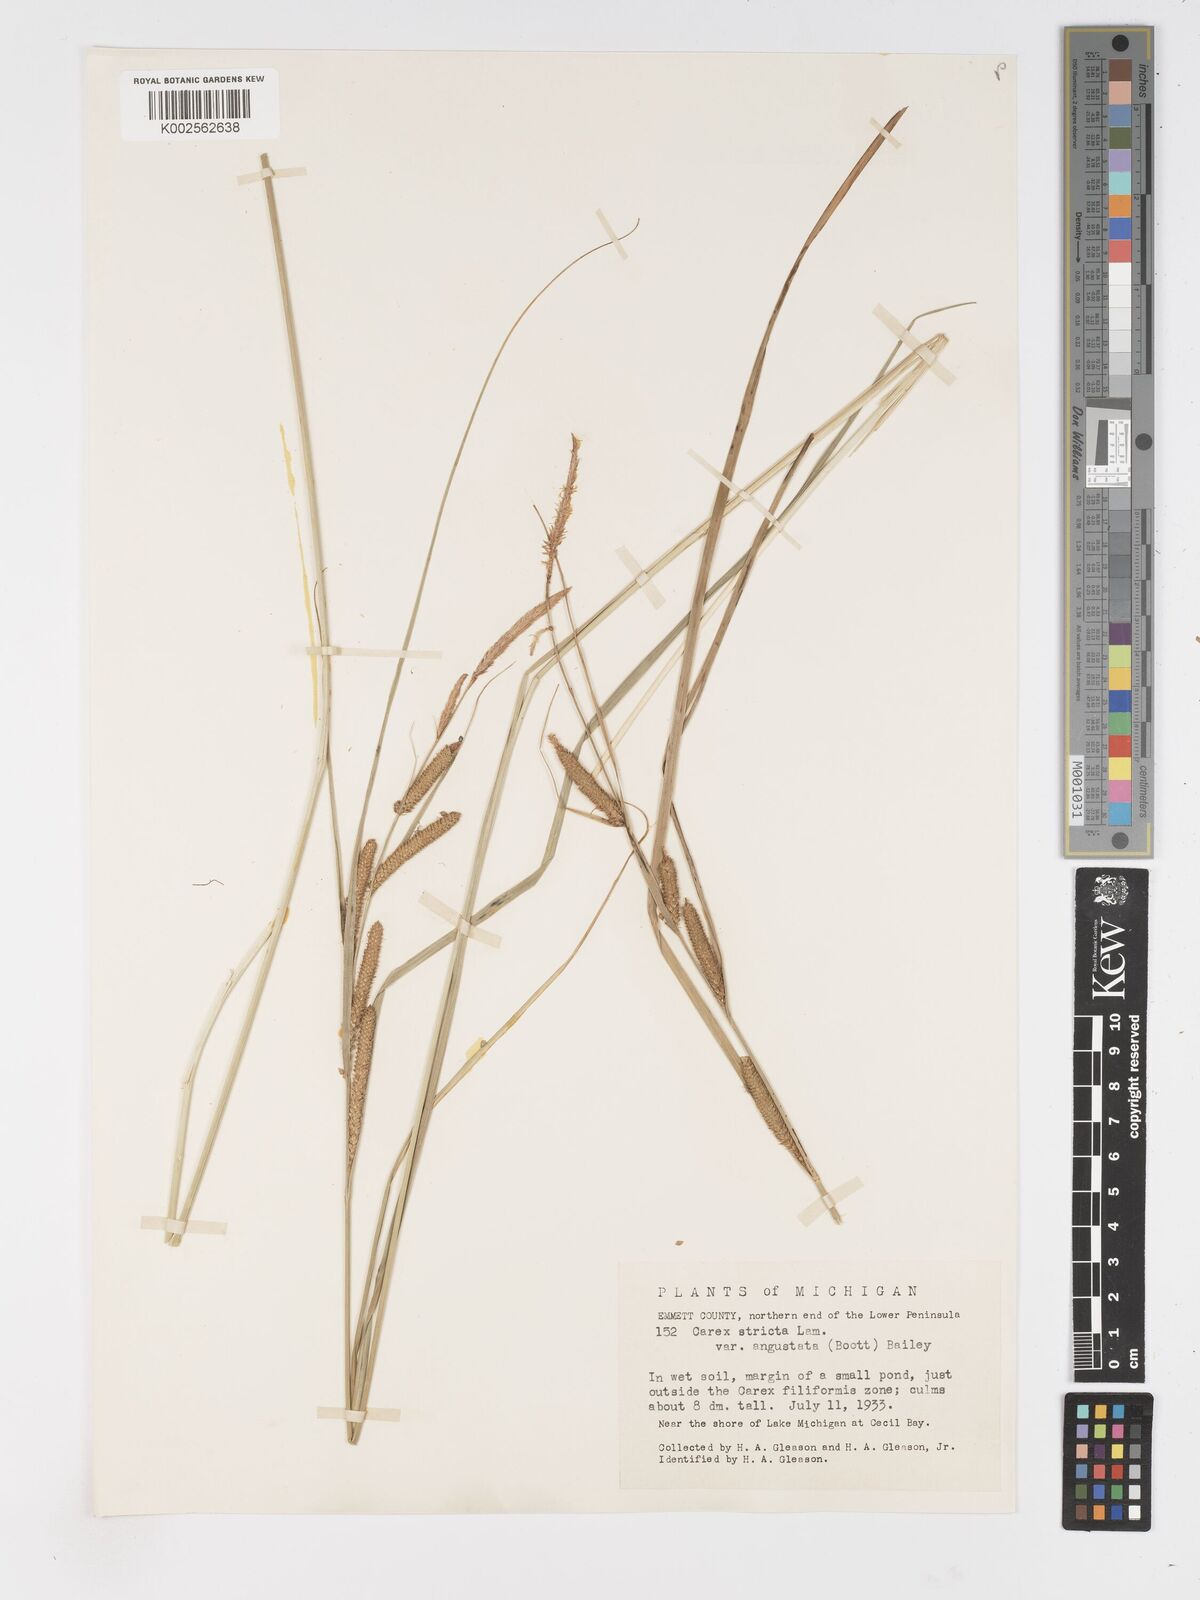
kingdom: Plantae
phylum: Tracheophyta
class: Liliopsida
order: Poales
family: Cyperaceae
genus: Carex
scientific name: Carex stricta
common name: Hummock sedge
